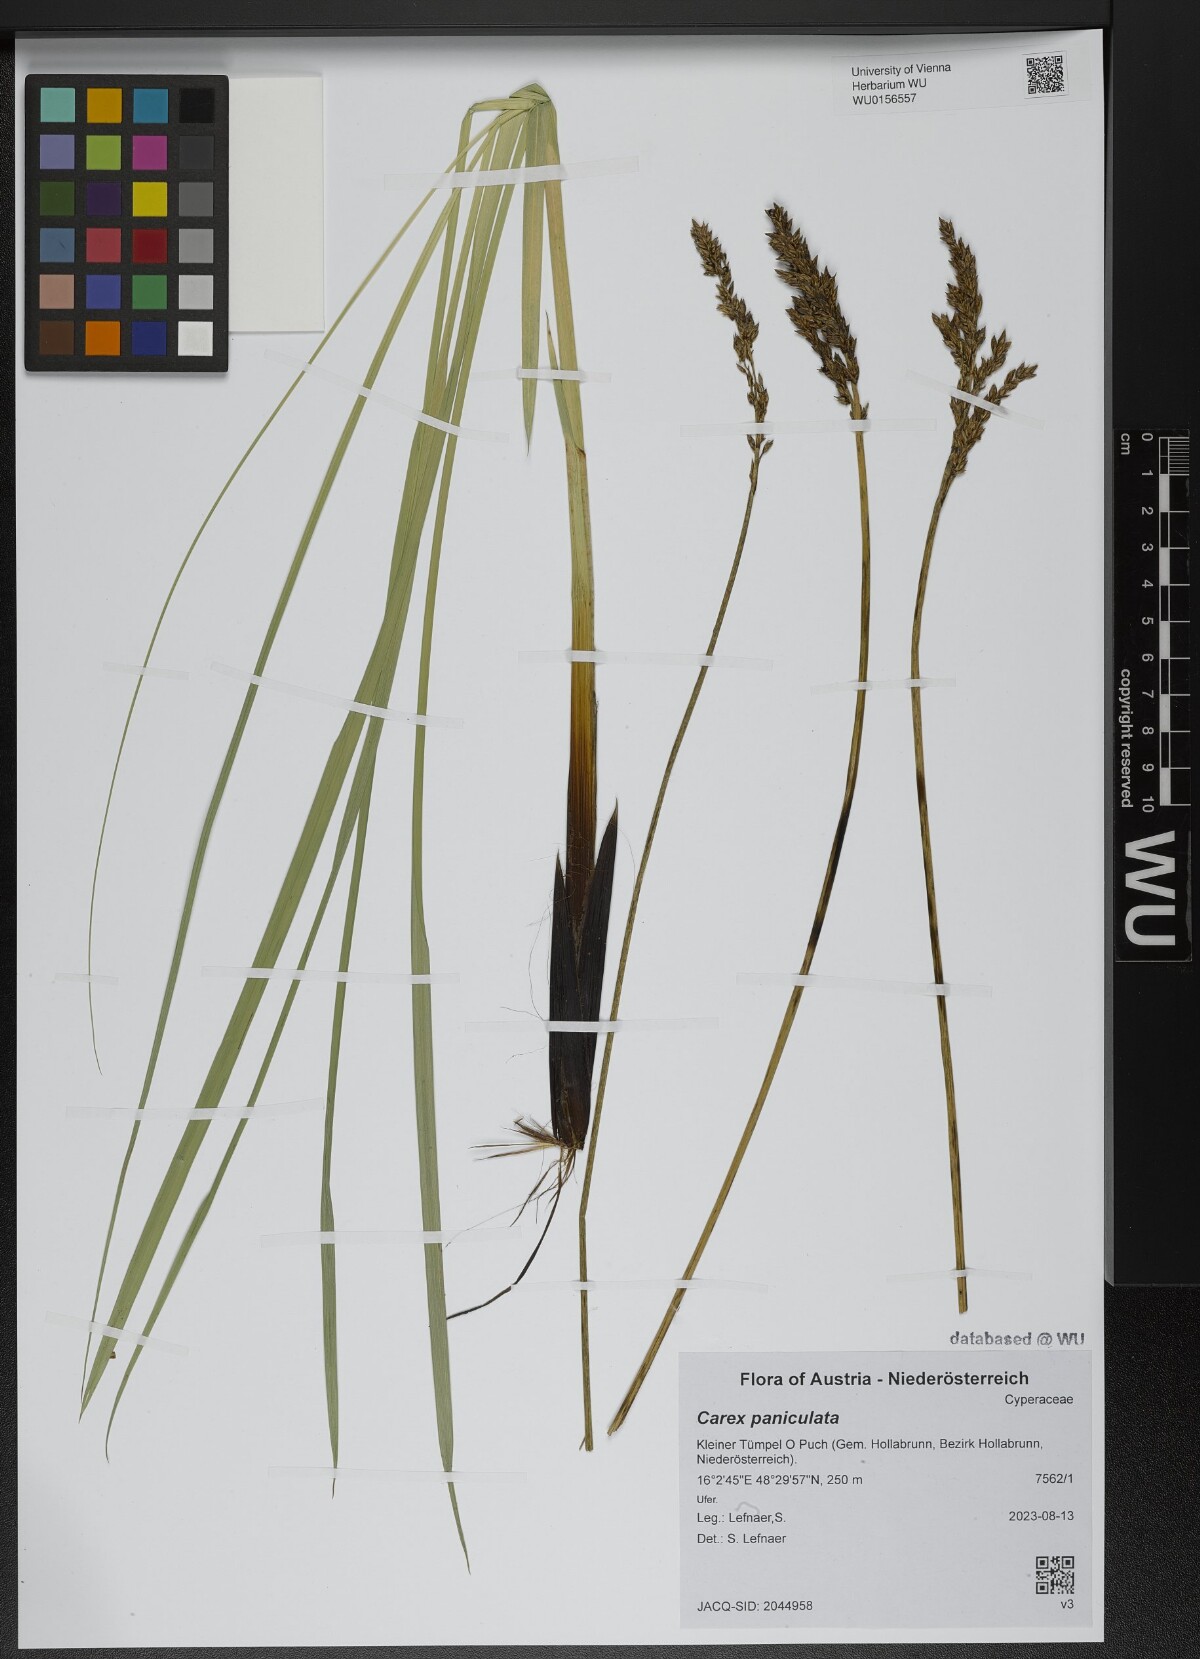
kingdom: Plantae
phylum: Tracheophyta
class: Liliopsida
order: Poales
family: Cyperaceae
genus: Carex
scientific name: Carex paniculata
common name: Greater tussock-sedge
